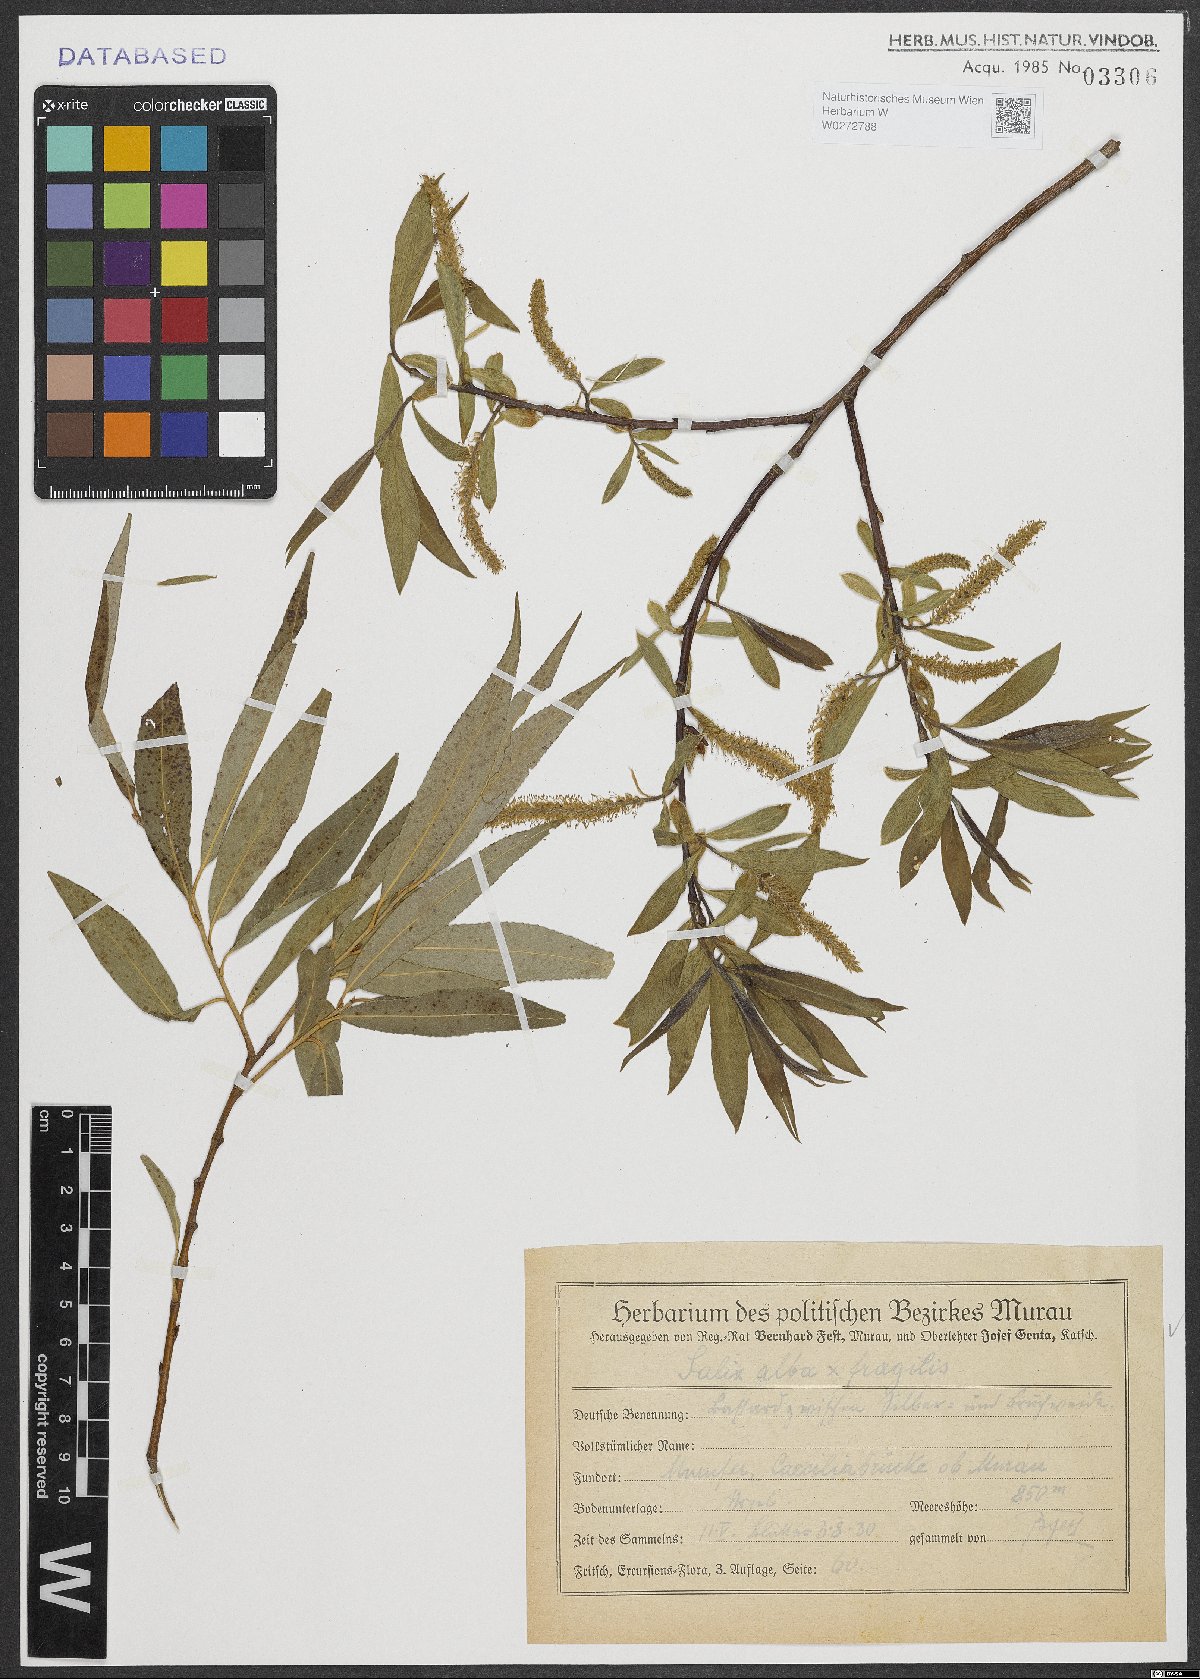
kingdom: Plantae
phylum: Tracheophyta
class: Magnoliopsida
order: Malpighiales
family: Salicaceae
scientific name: Salicaceae
